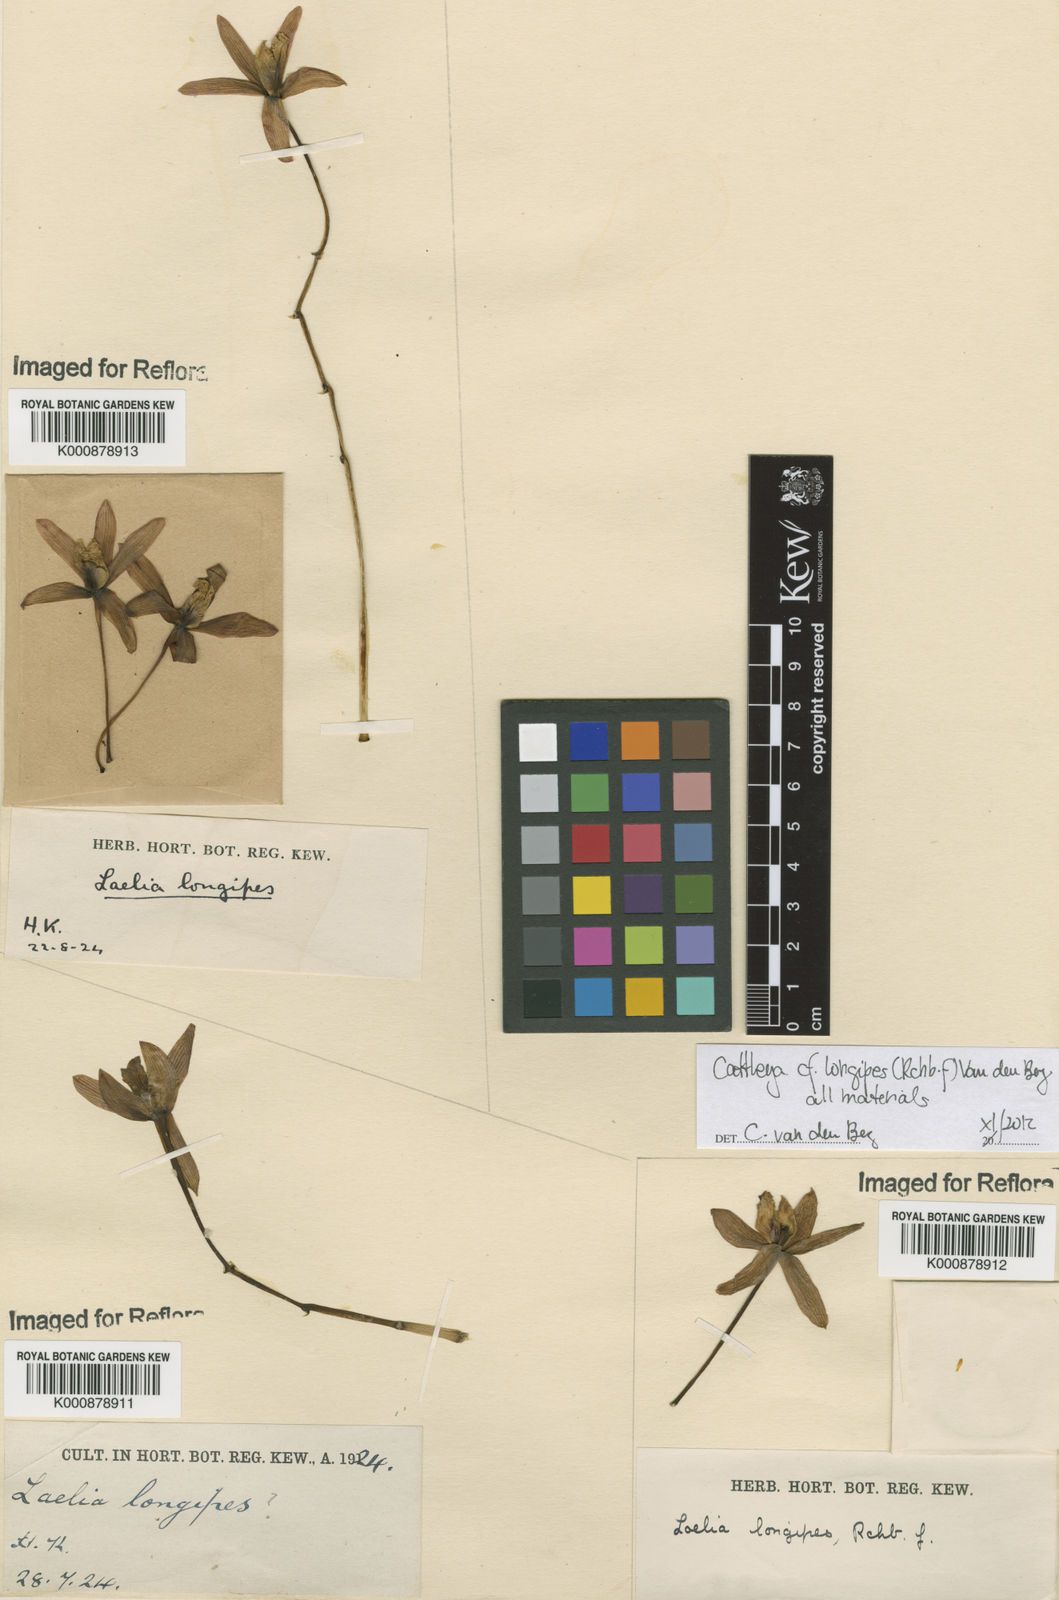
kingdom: Plantae
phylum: Tracheophyta
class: Liliopsida
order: Asparagales
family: Orchidaceae
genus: Cattleya
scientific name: Cattleya longipes
